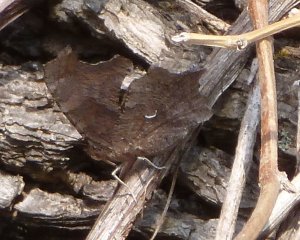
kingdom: Animalia
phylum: Arthropoda
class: Insecta
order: Lepidoptera
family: Nymphalidae
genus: Polygonia
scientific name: Polygonia progne
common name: Gray Comma
